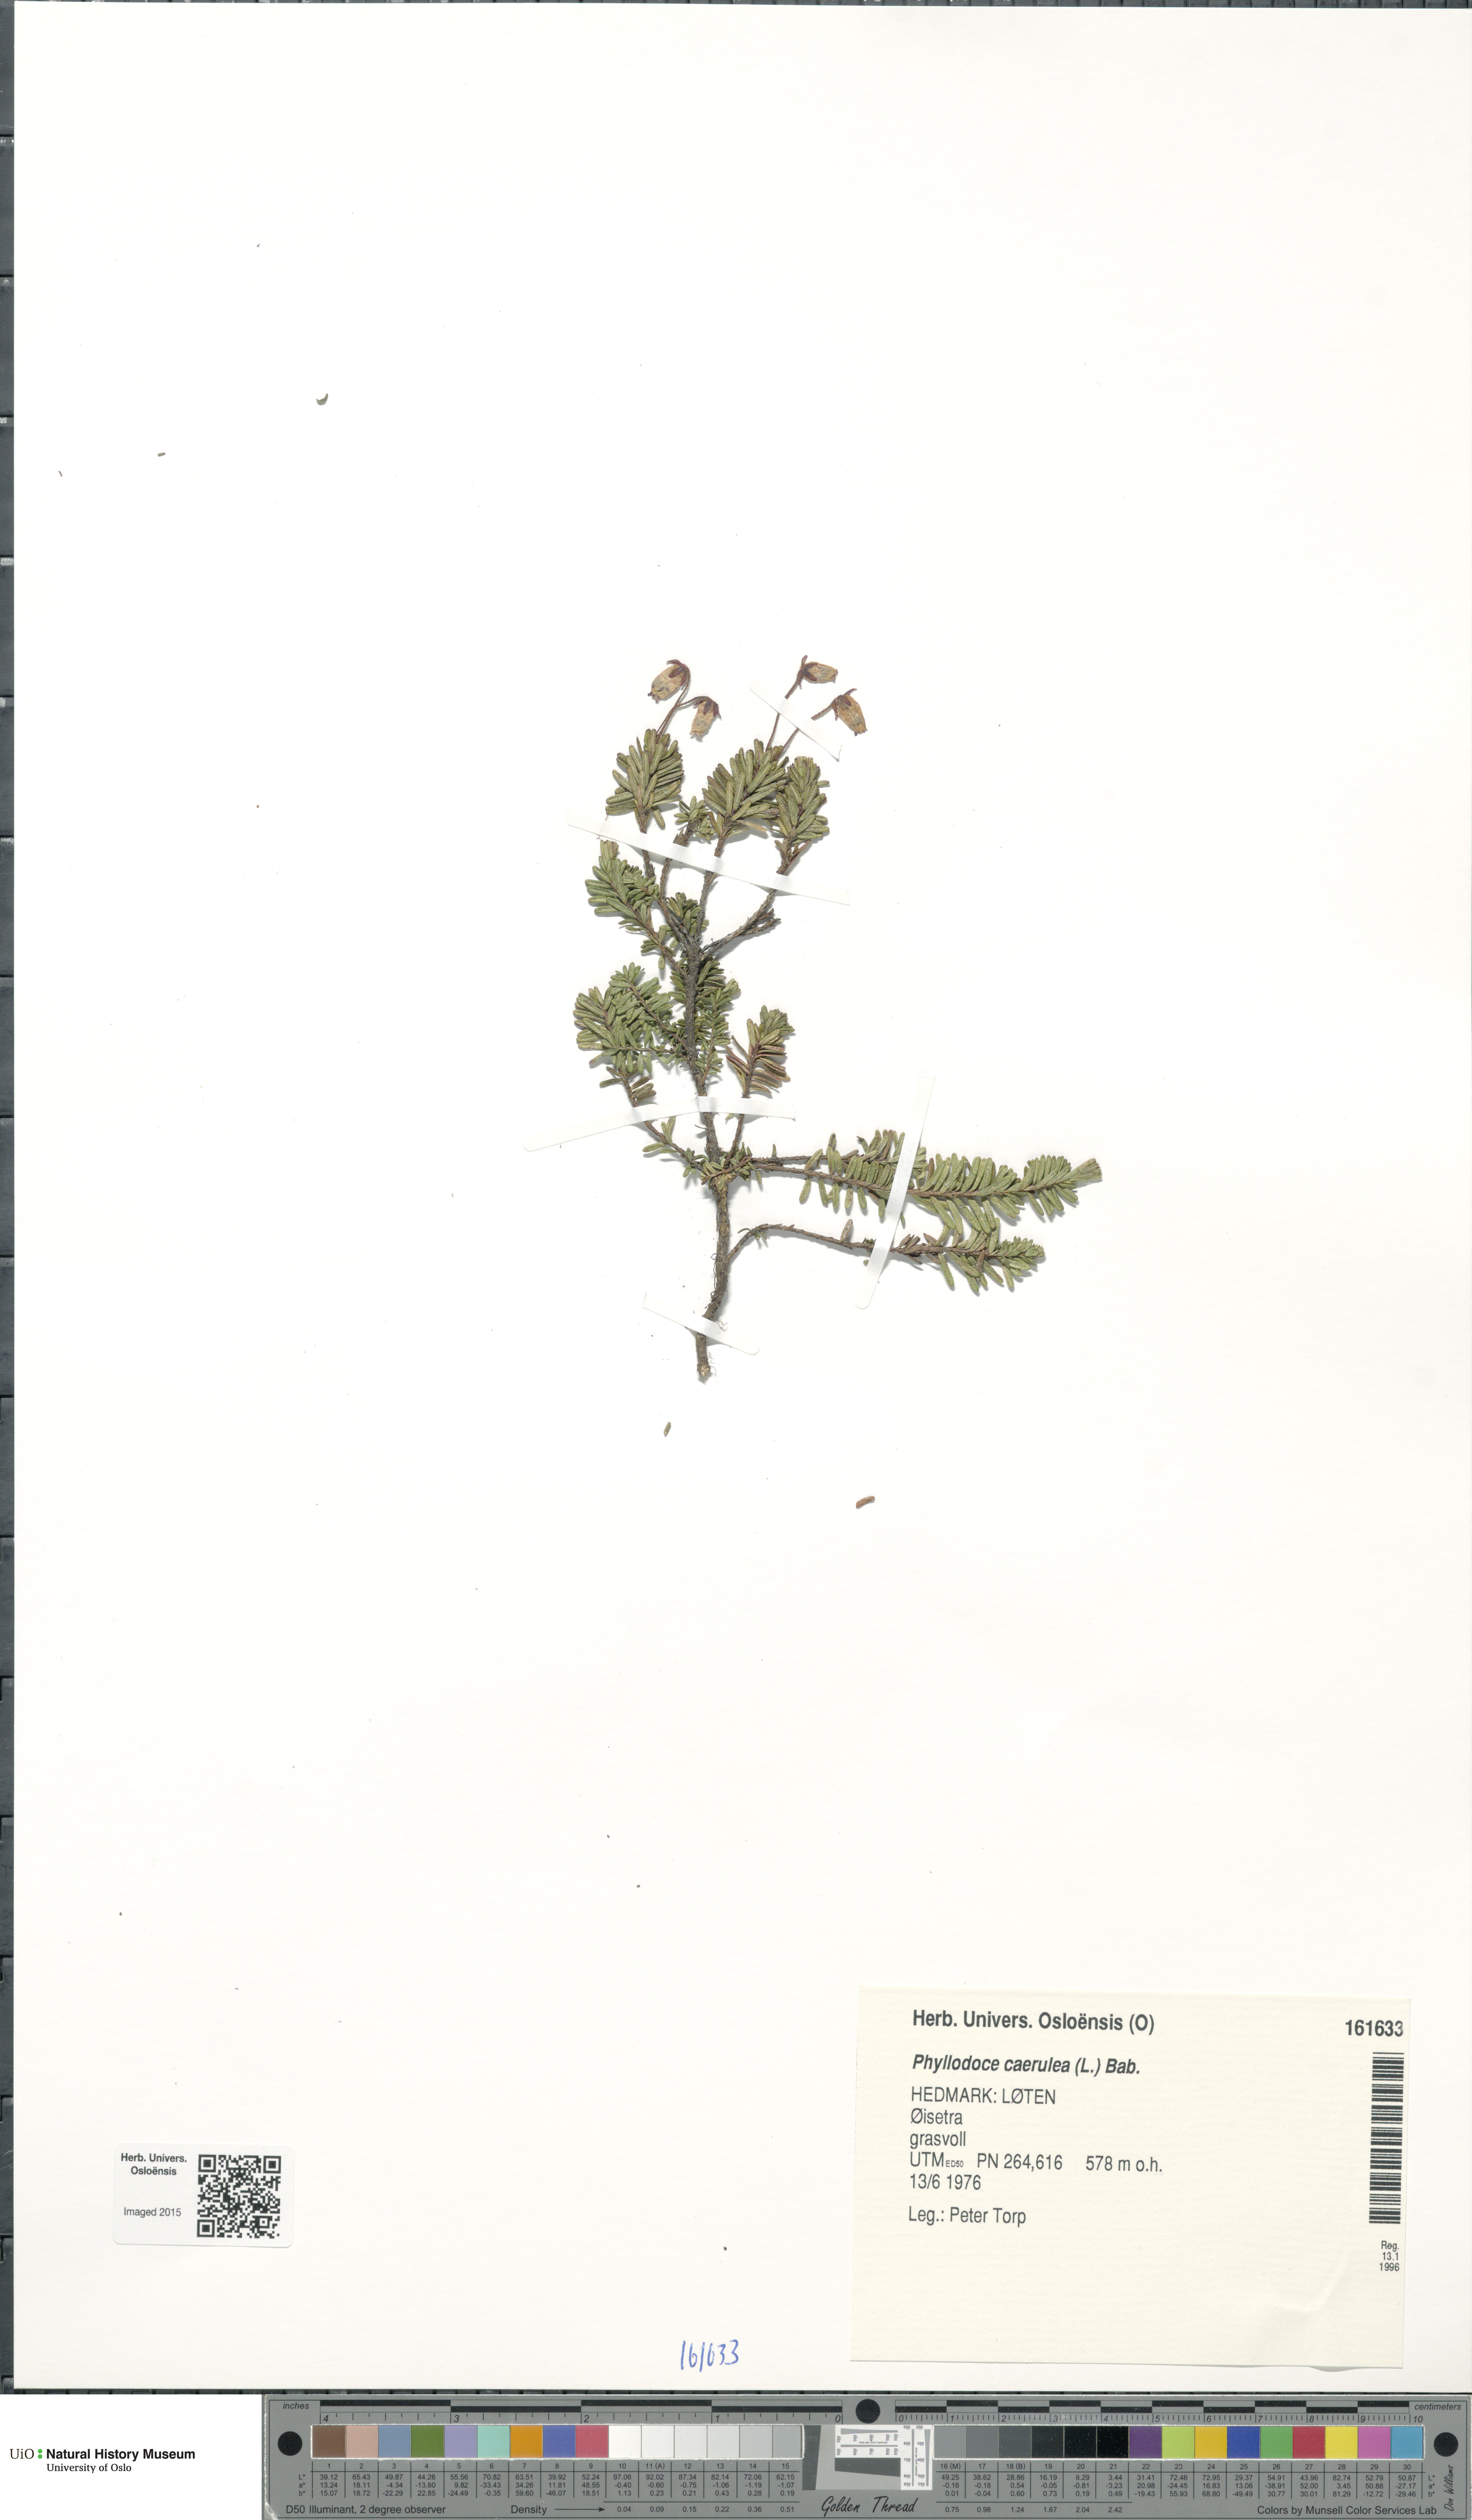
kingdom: Plantae
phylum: Tracheophyta
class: Magnoliopsida
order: Ericales
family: Ericaceae
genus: Phyllodoce
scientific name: Phyllodoce caerulea
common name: Blue heath
